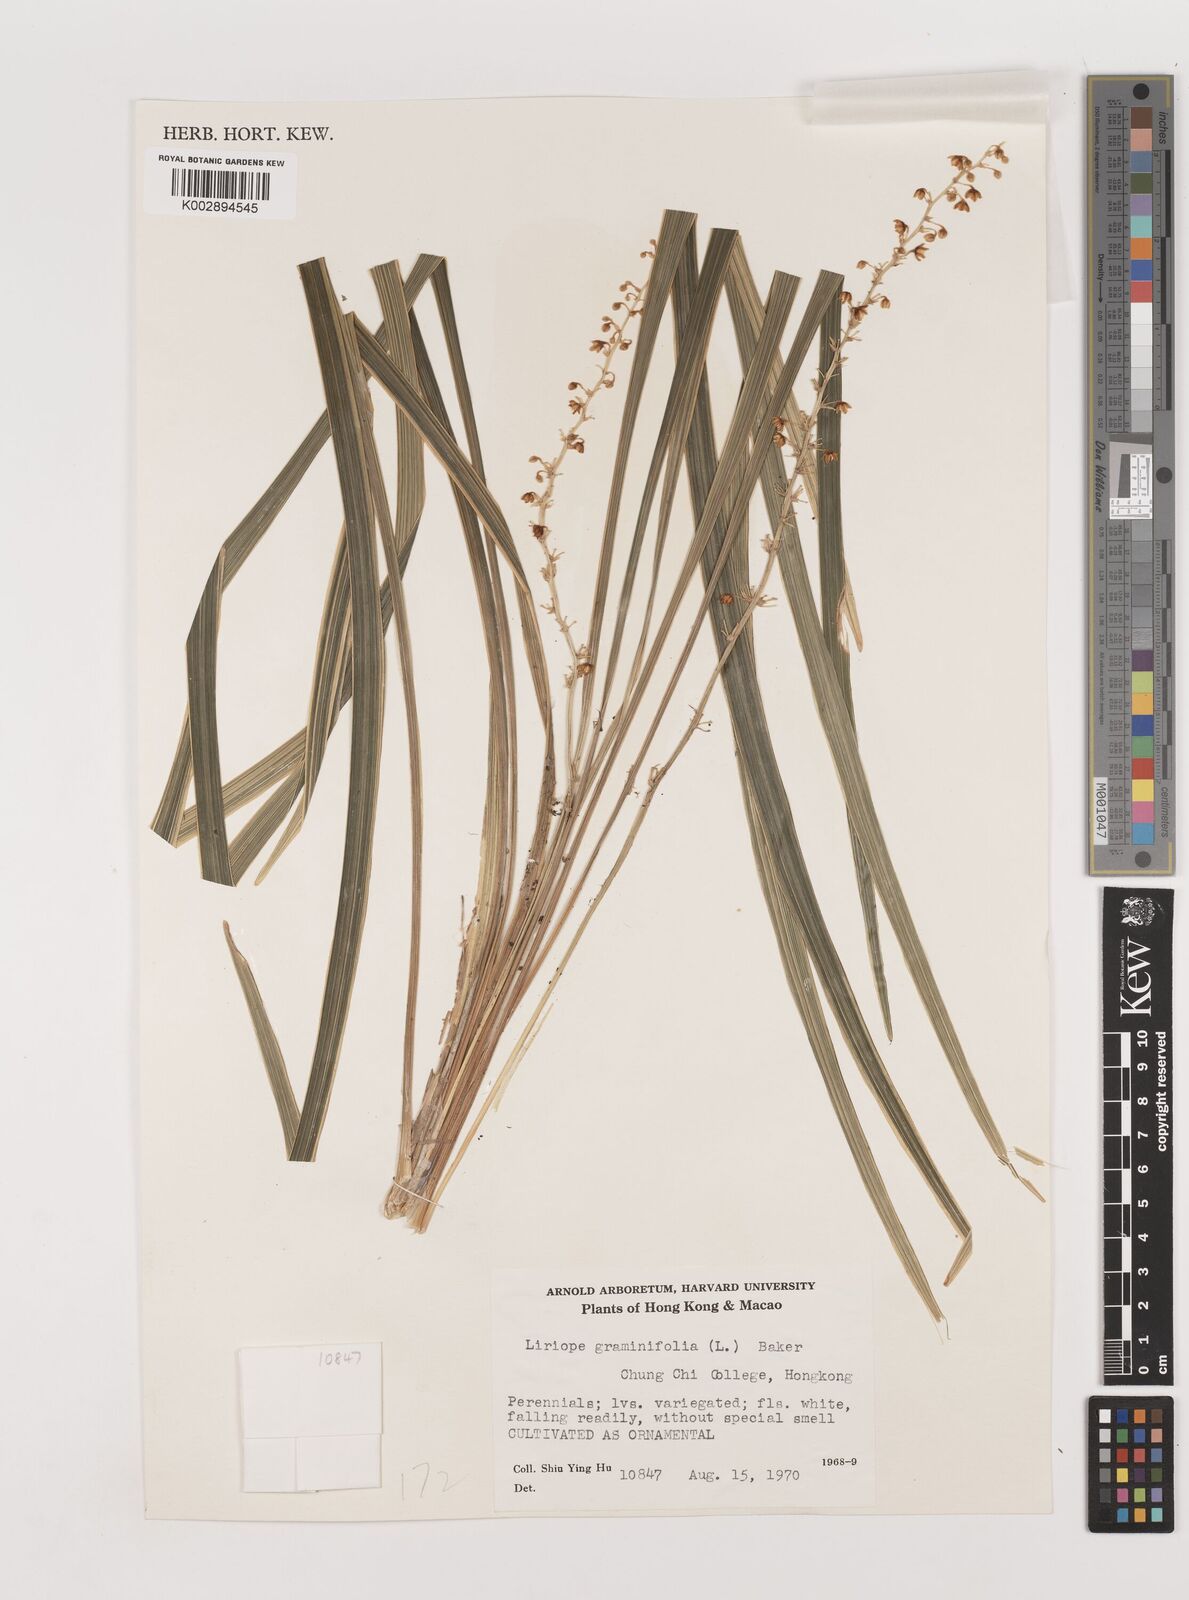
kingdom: Plantae
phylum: Tracheophyta
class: Liliopsida
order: Asparagales
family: Asparagaceae
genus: Liriope
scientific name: Liriope spicata
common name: Creeping liriope
